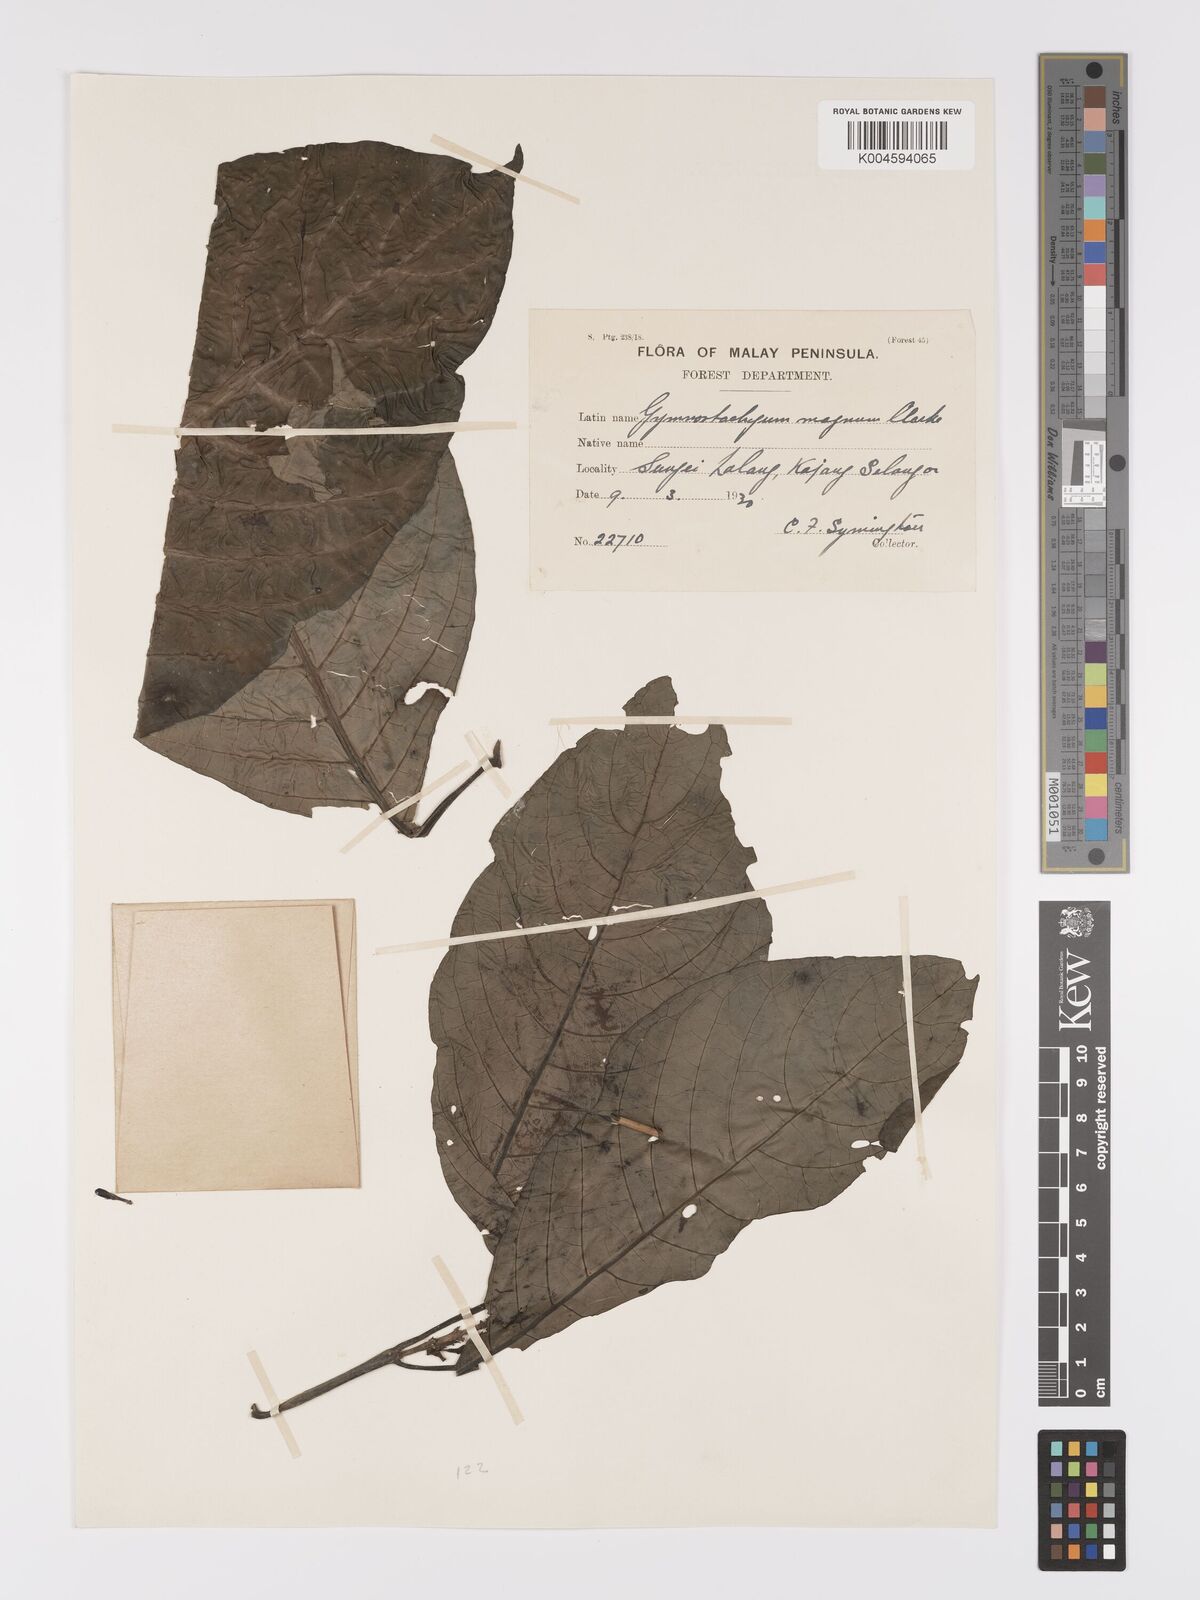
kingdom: Plantae
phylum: Tracheophyta
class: Magnoliopsida
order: Lamiales
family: Acanthaceae
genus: Phlogacanthus
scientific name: Phlogacanthus magnus
